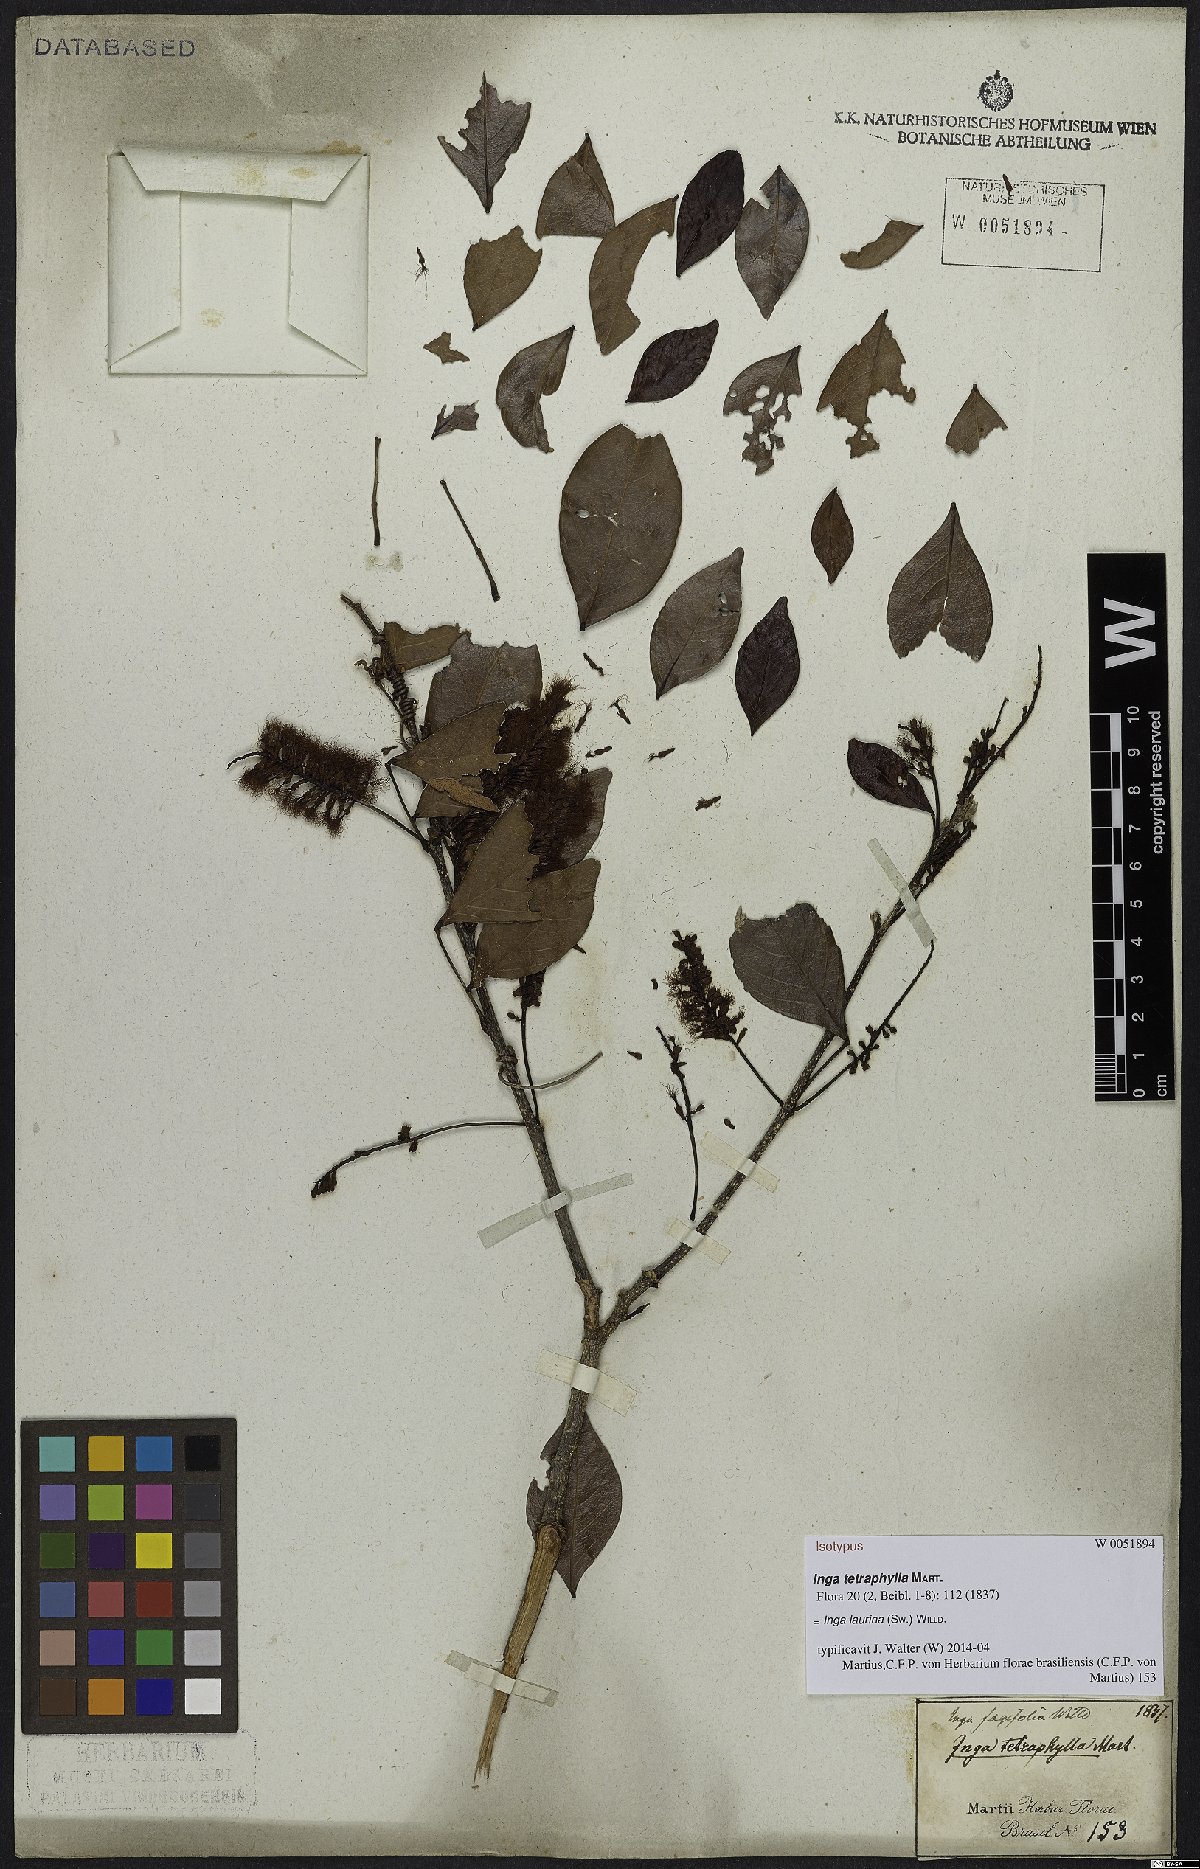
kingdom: Plantae
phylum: Tracheophyta
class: Magnoliopsida
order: Fabales
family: Fabaceae
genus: Inga
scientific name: Inga laurina
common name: Red wood
